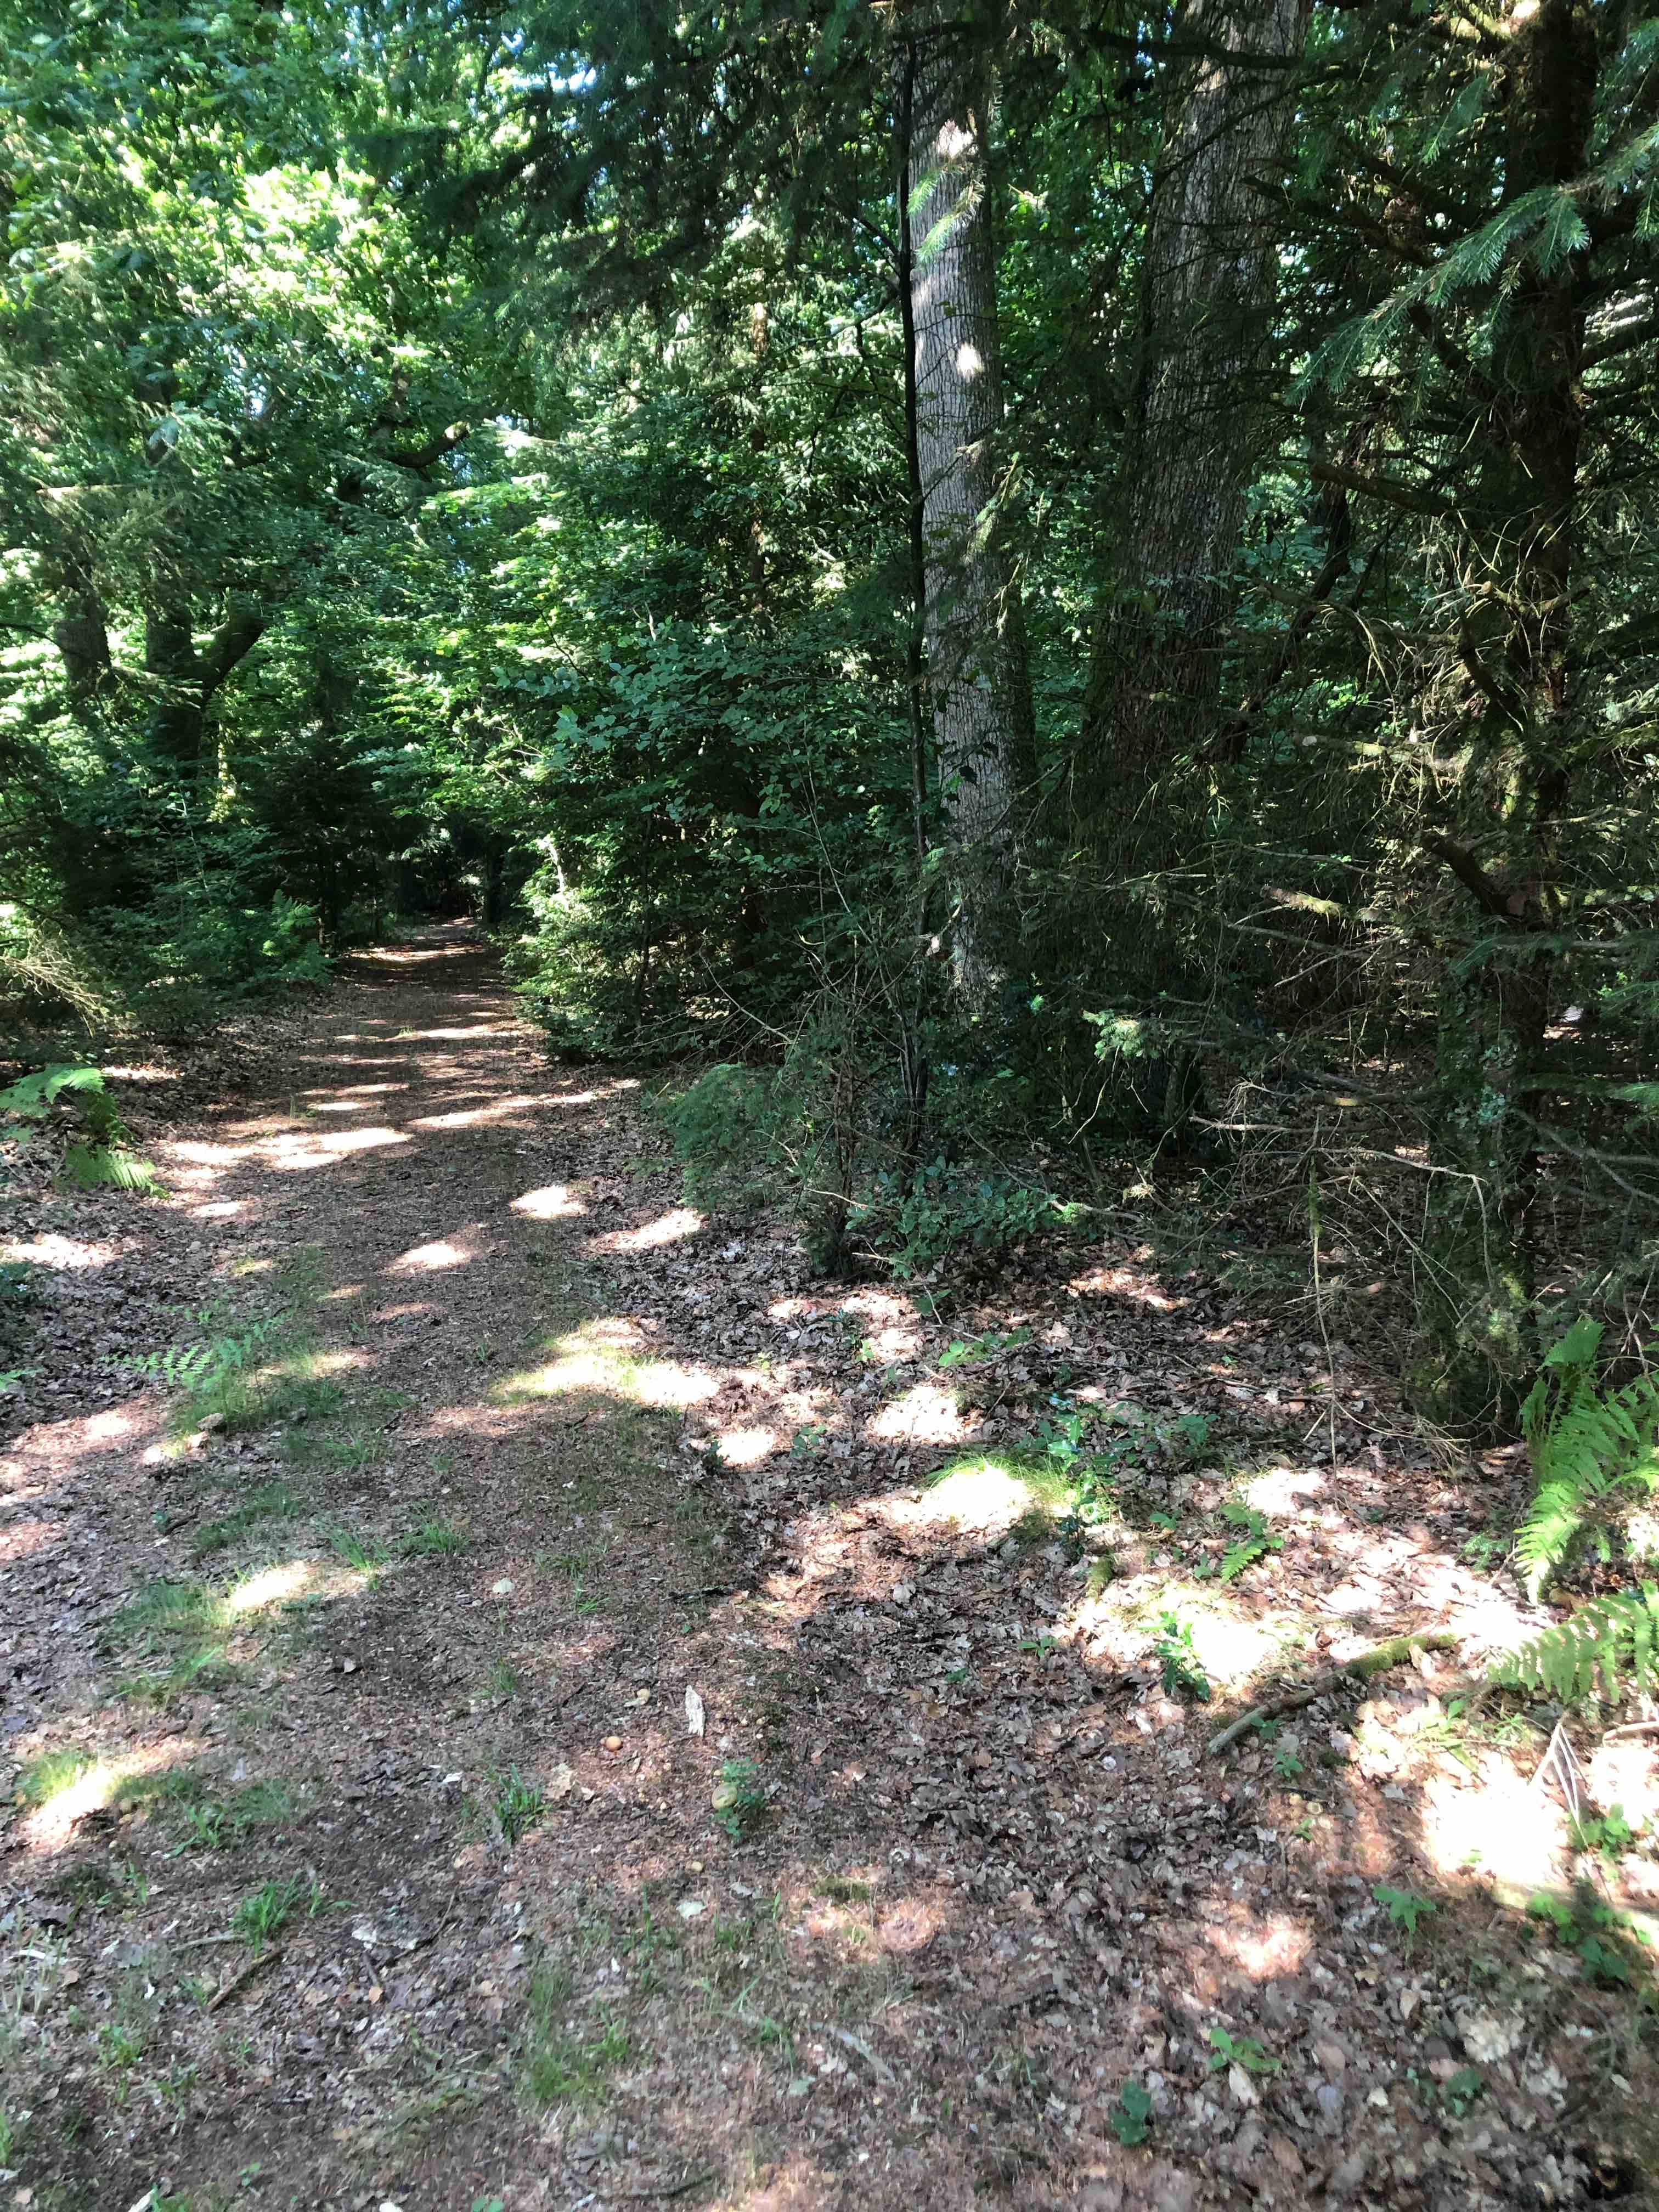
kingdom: Fungi
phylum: Basidiomycota
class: Agaricomycetes
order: Boletales
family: Sclerodermataceae
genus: Scleroderma
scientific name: Scleroderma citrinum
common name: almindelig bruskbold
